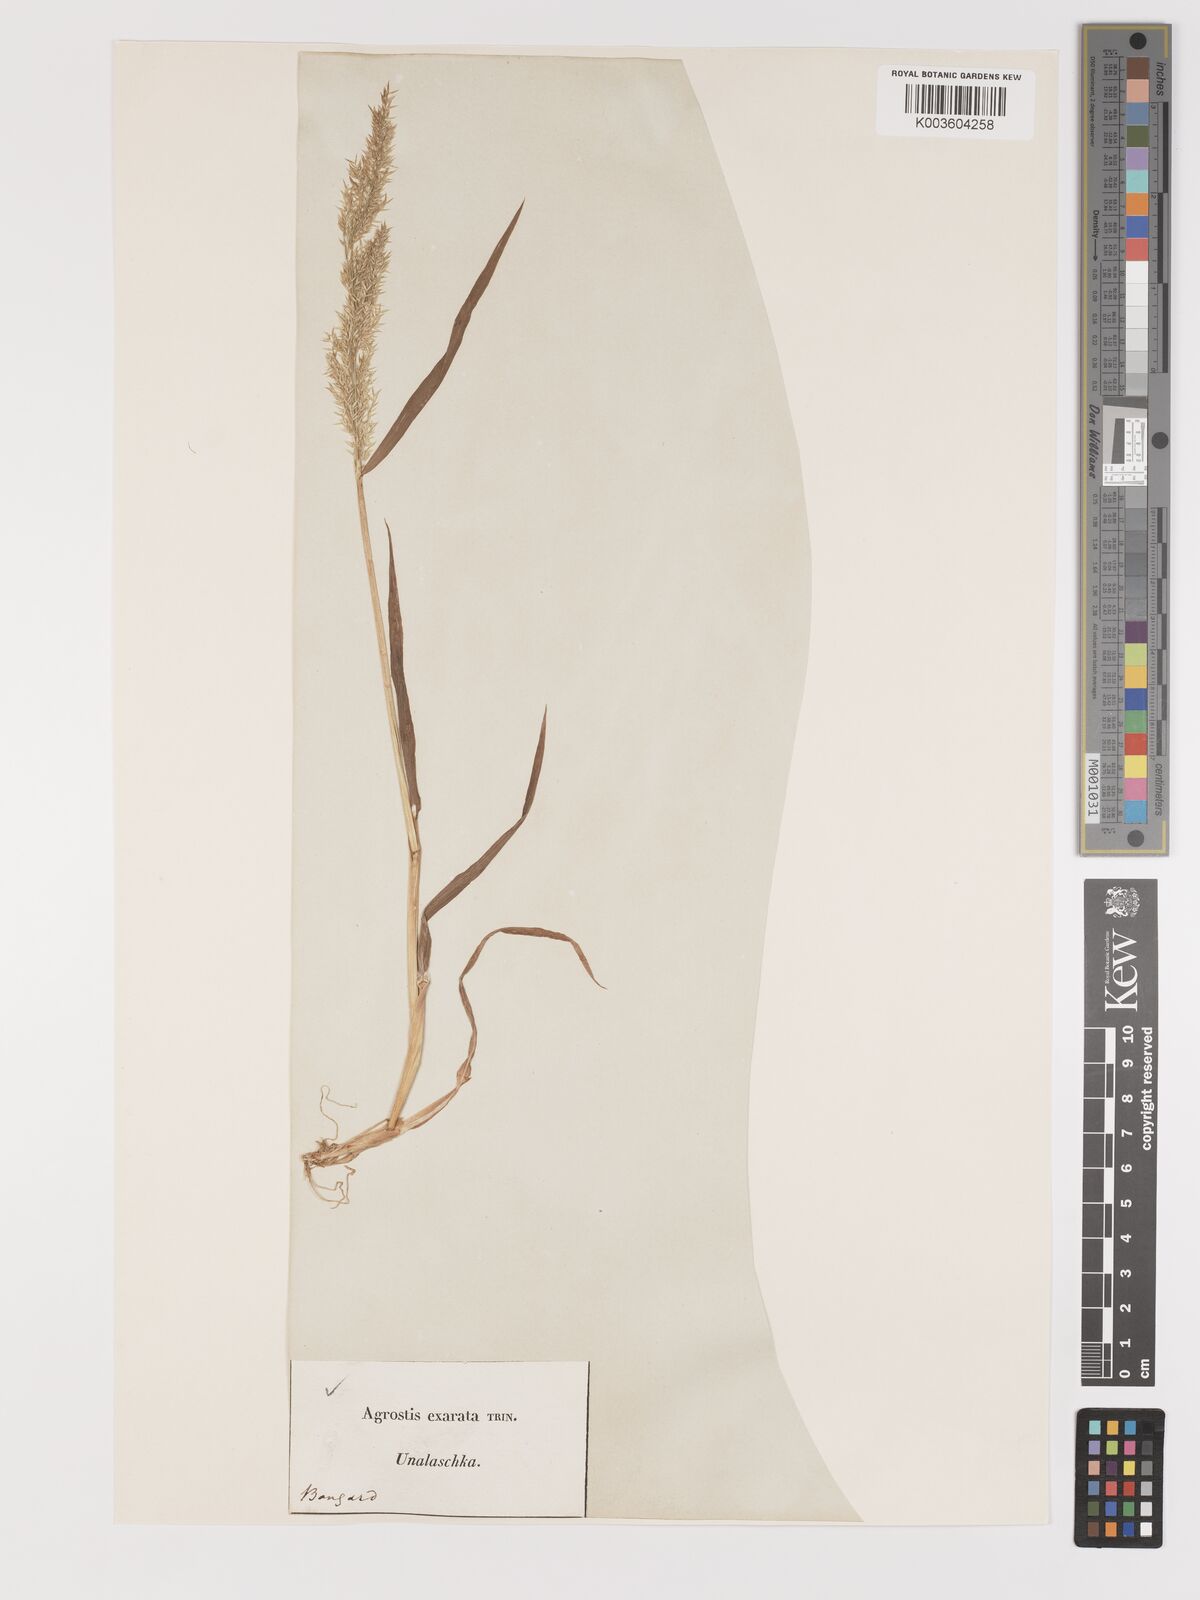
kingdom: Plantae
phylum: Tracheophyta
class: Liliopsida
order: Poales
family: Poaceae
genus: Agrostis
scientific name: Agrostis exarata
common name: Spike bent
